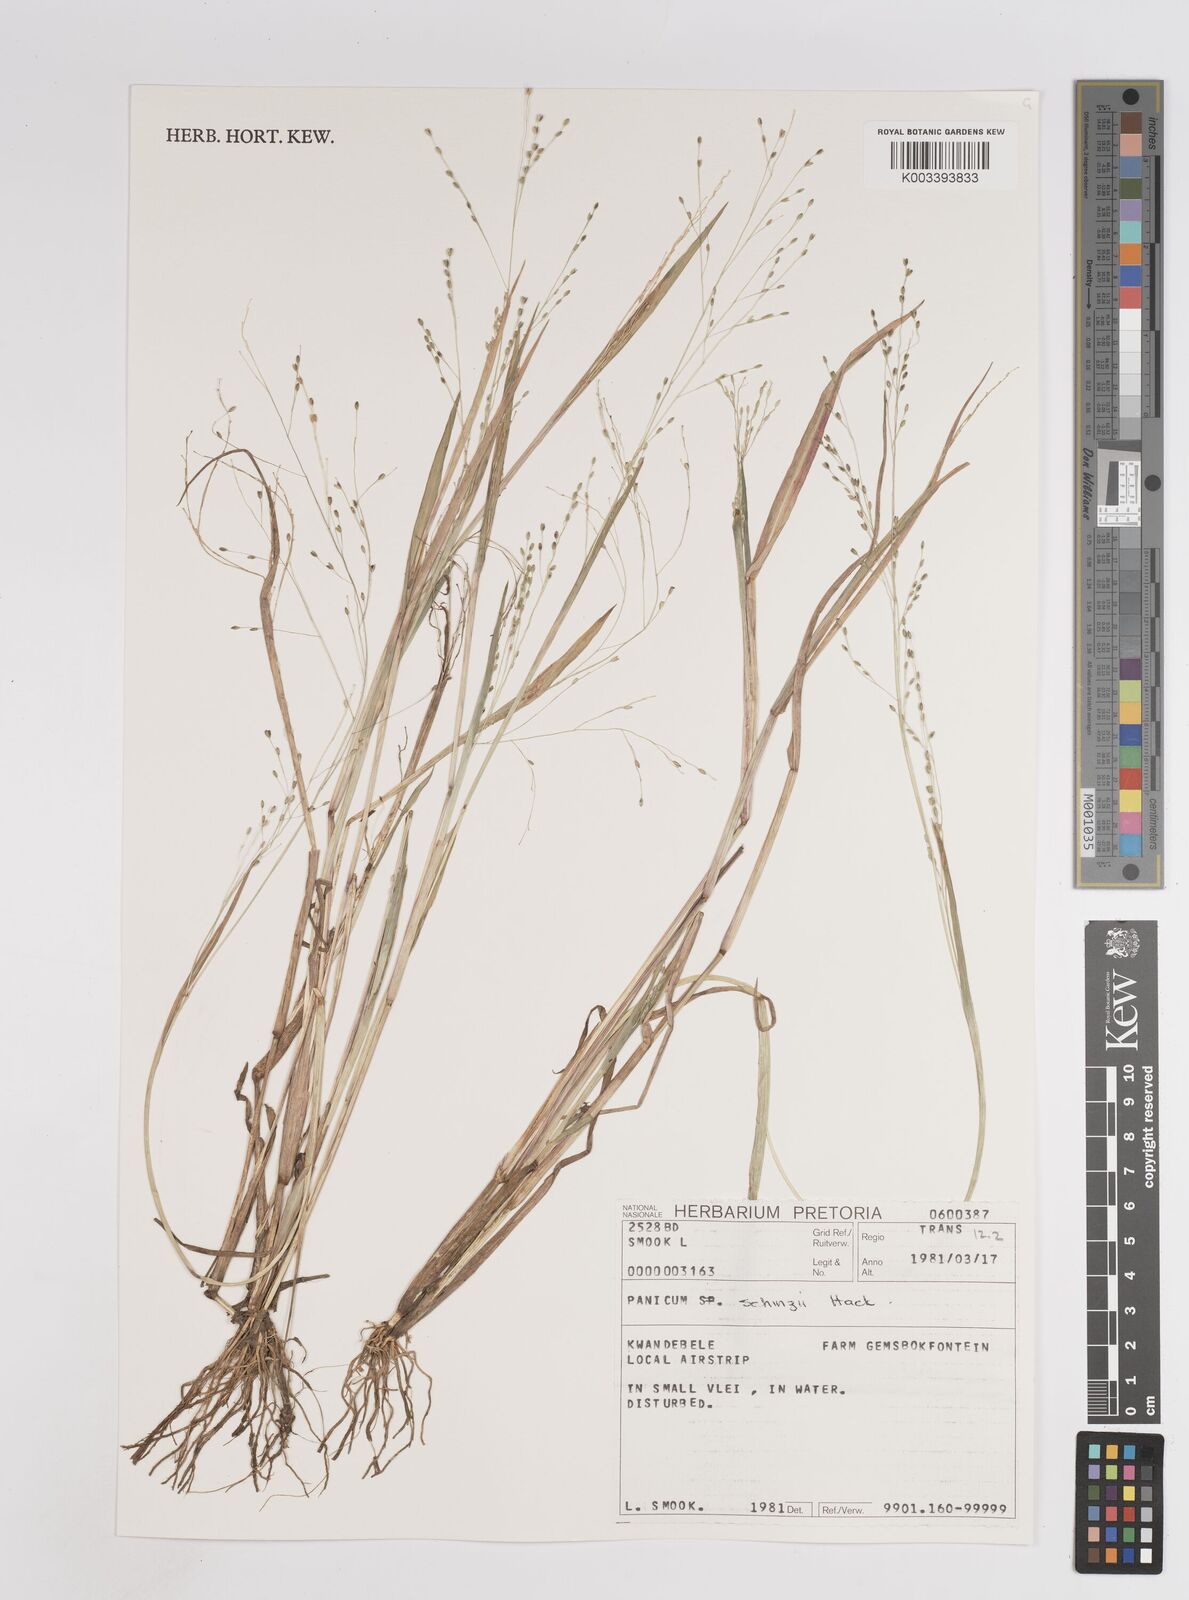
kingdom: Plantae
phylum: Tracheophyta
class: Liliopsida
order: Poales
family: Poaceae
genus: Panicum
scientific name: Panicum repens
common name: Torpedo grass
